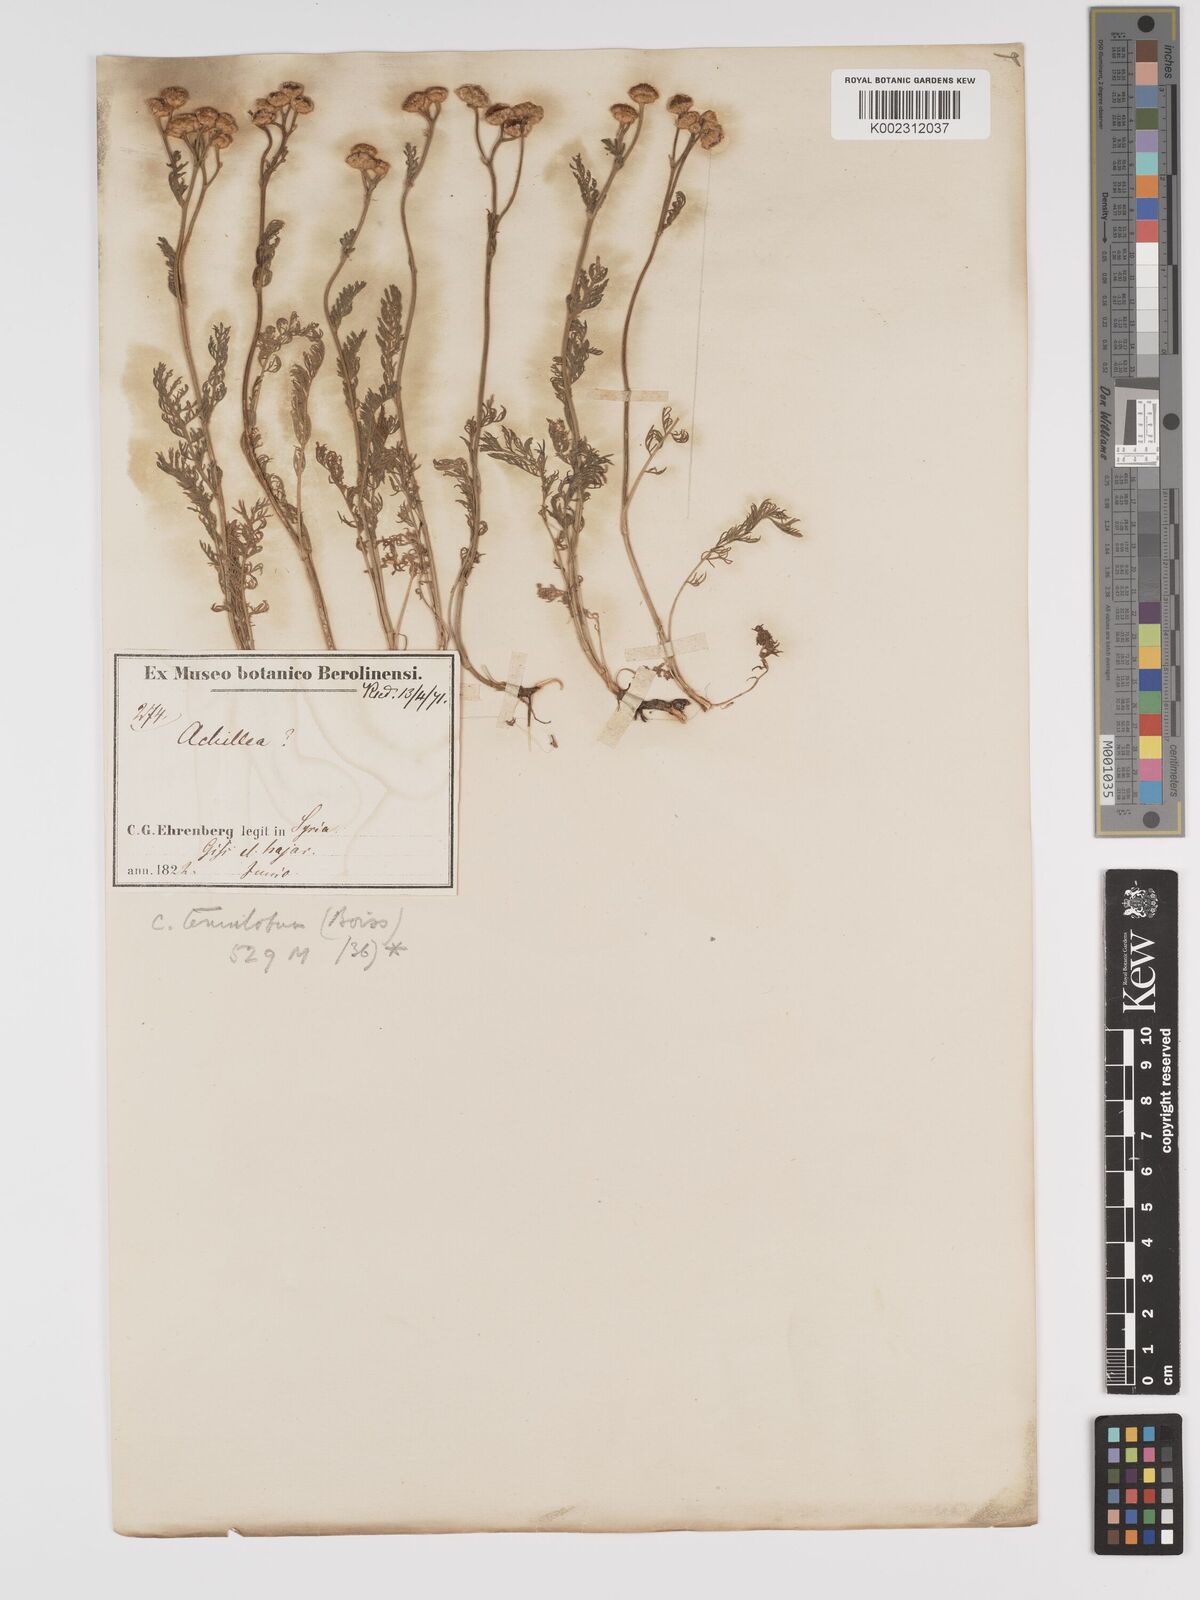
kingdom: Plantae
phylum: Tracheophyta
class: Magnoliopsida
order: Asterales
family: Asteraceae
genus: Tanacetum
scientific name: Tanacetum aucheri
